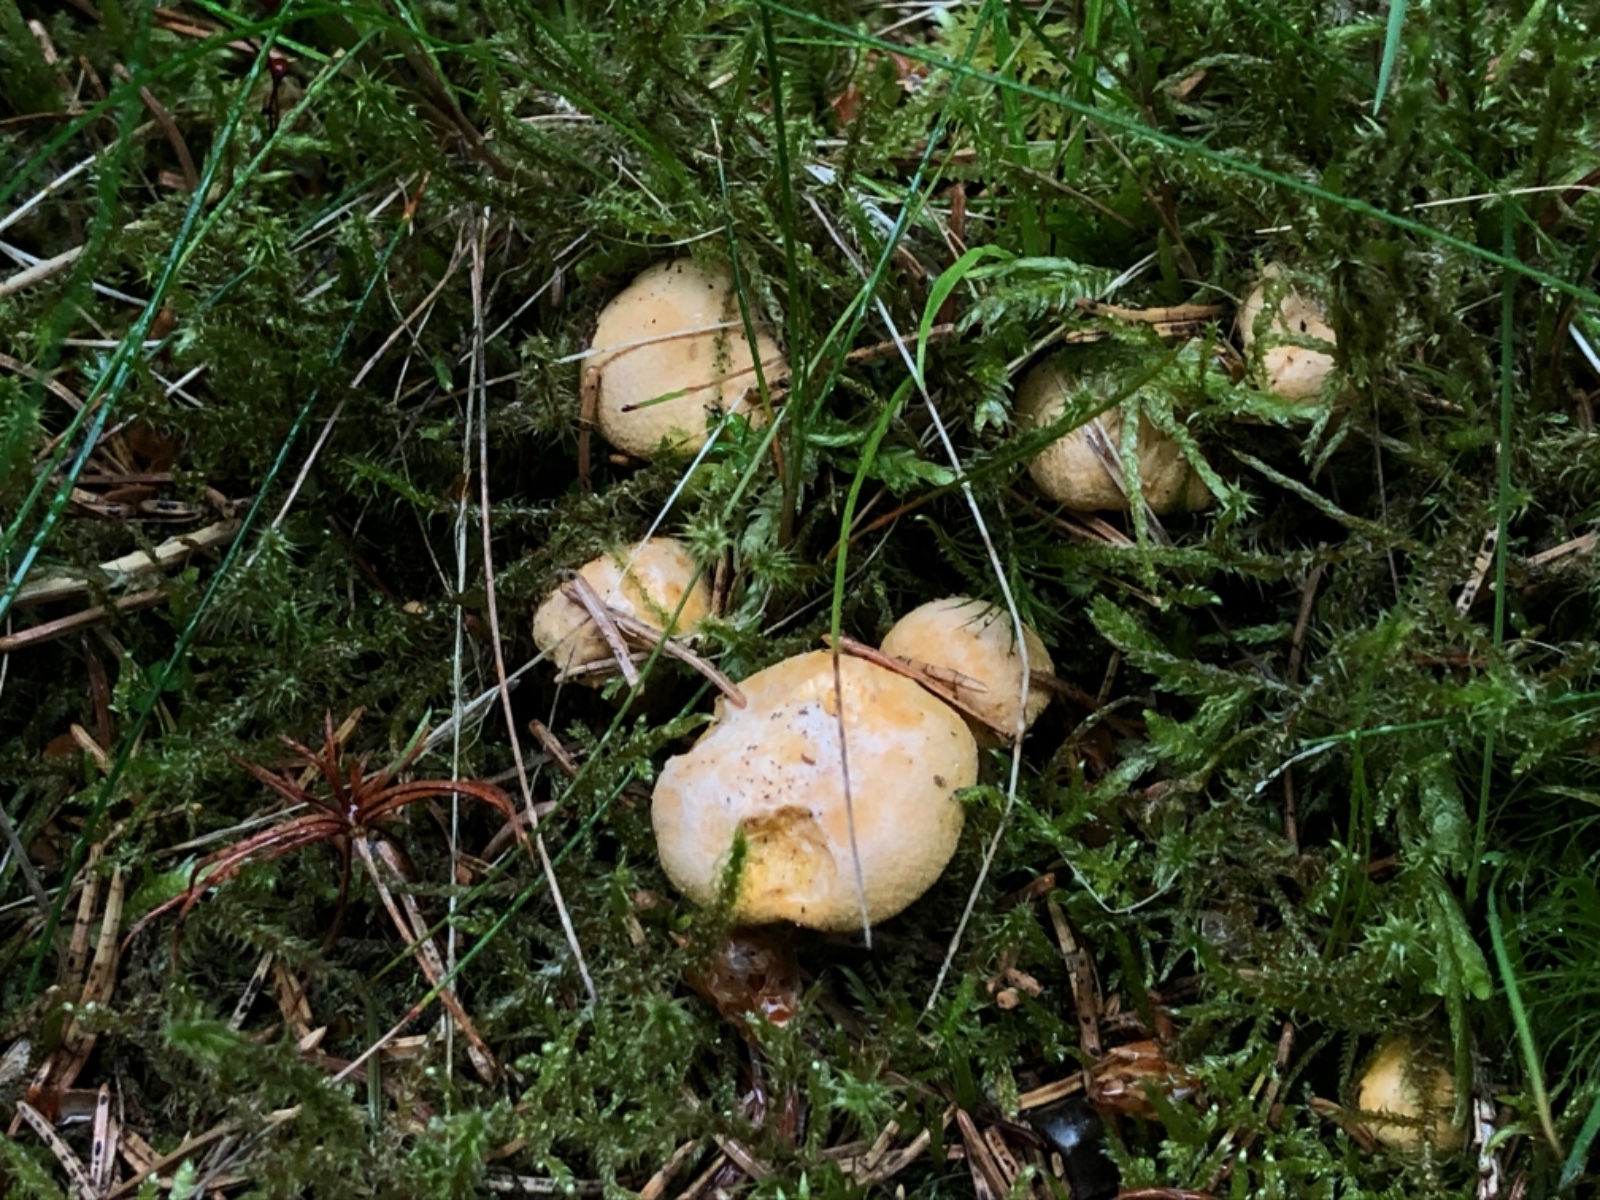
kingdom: Fungi
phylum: Basidiomycota
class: Agaricomycetes
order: Cantharellales
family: Hydnaceae
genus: Cantharellus
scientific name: Cantharellus cibarius
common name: almindelig kantarel
